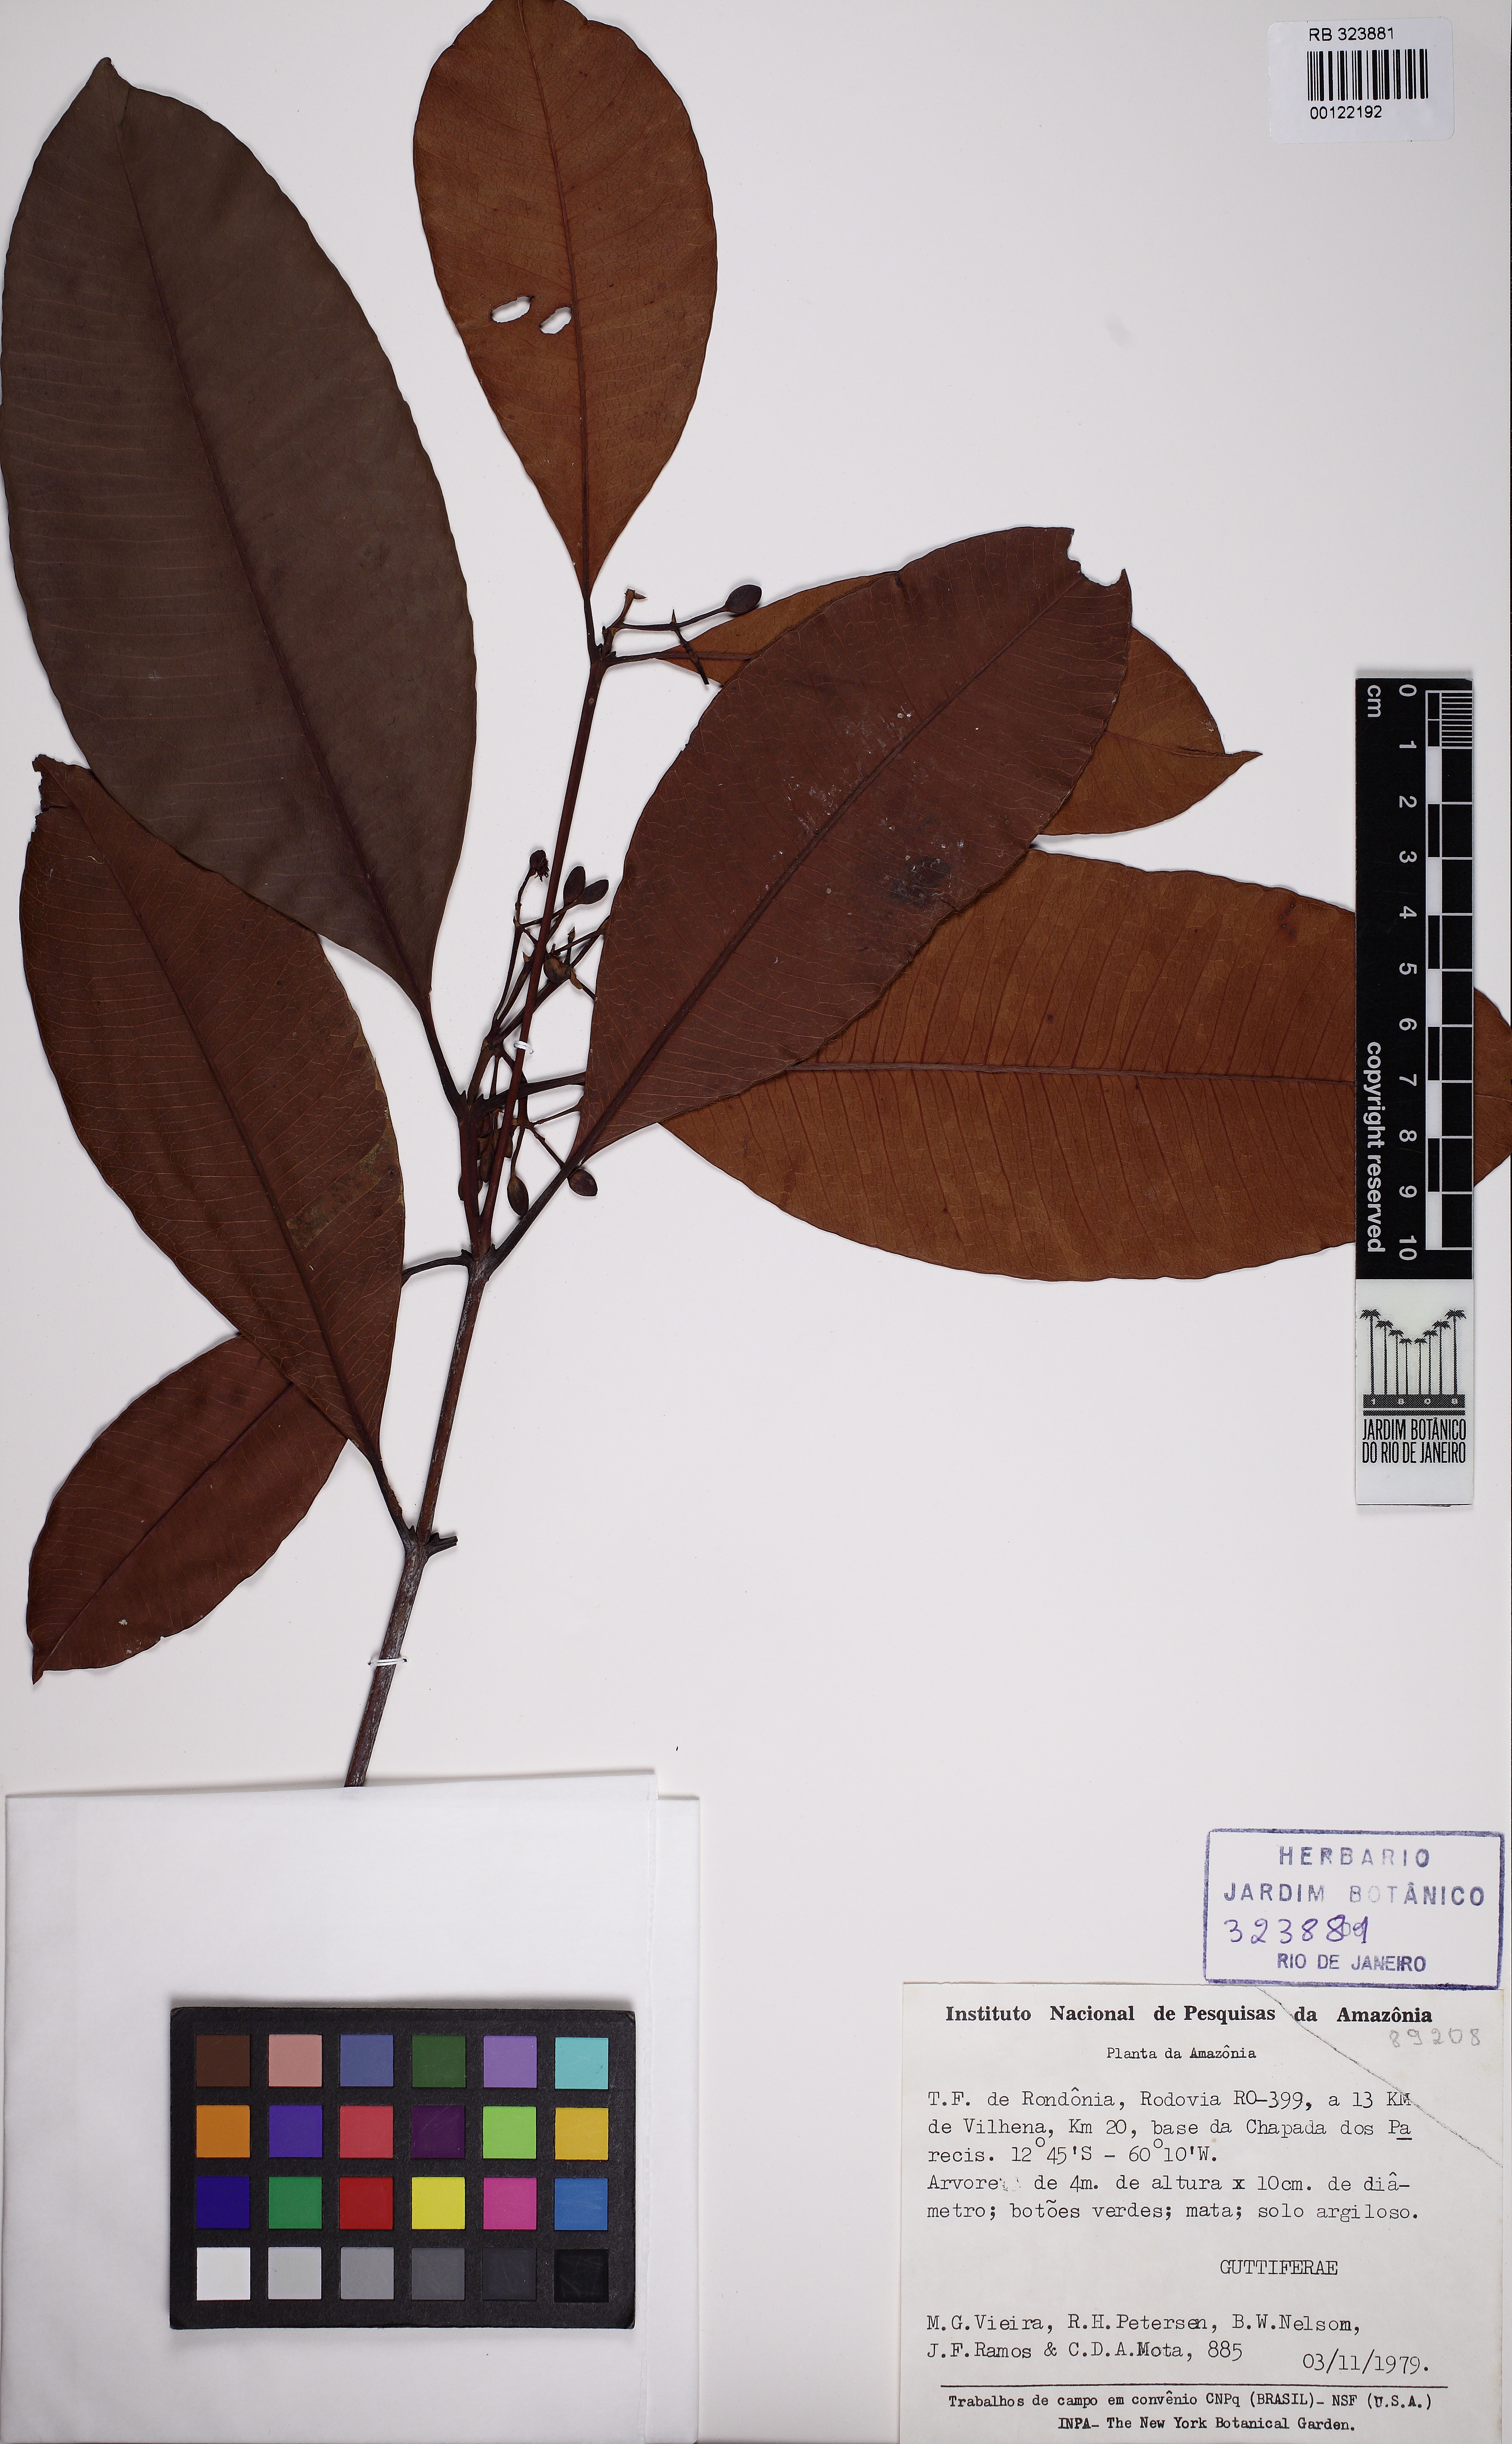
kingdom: Plantae
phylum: Tracheophyta
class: Magnoliopsida
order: Malpighiales
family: Clusiaceae
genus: Tovomita
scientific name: Tovomita umbellata
